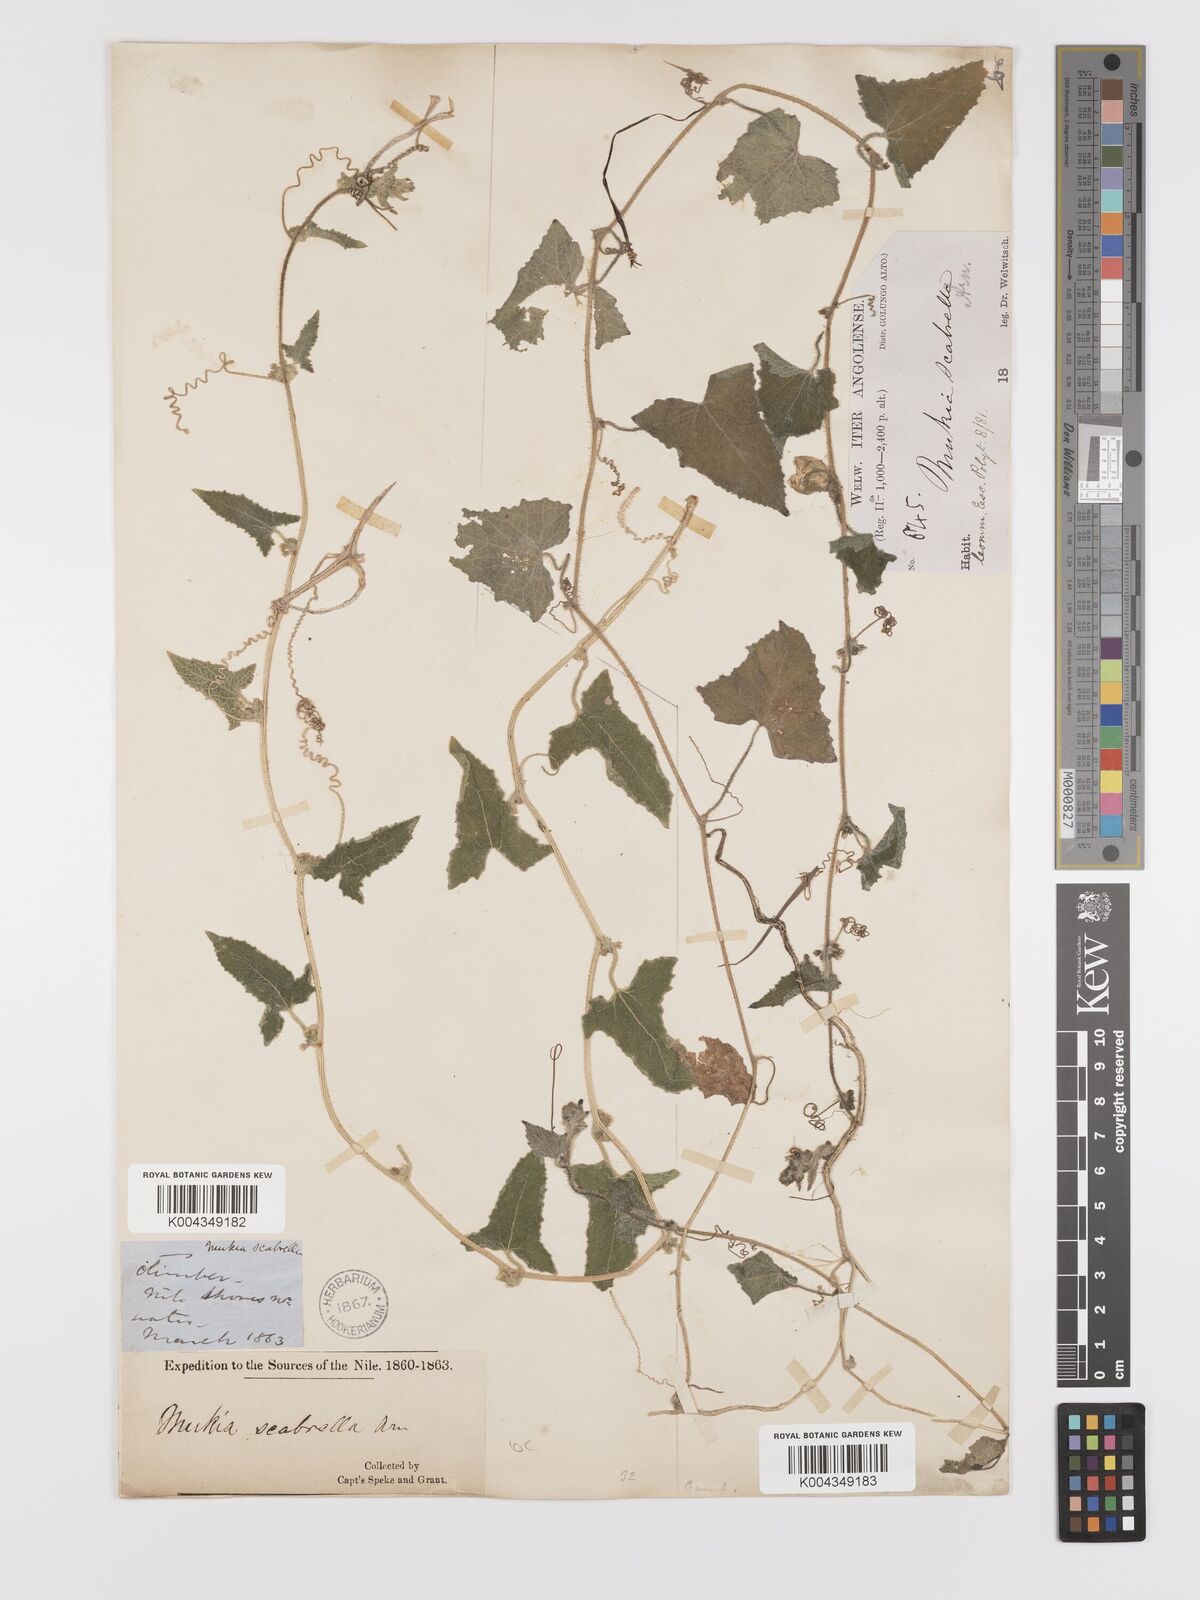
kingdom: Plantae
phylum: Tracheophyta
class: Magnoliopsida
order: Cucurbitales
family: Cucurbitaceae
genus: Cucumis
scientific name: Cucumis maderaspatanus
